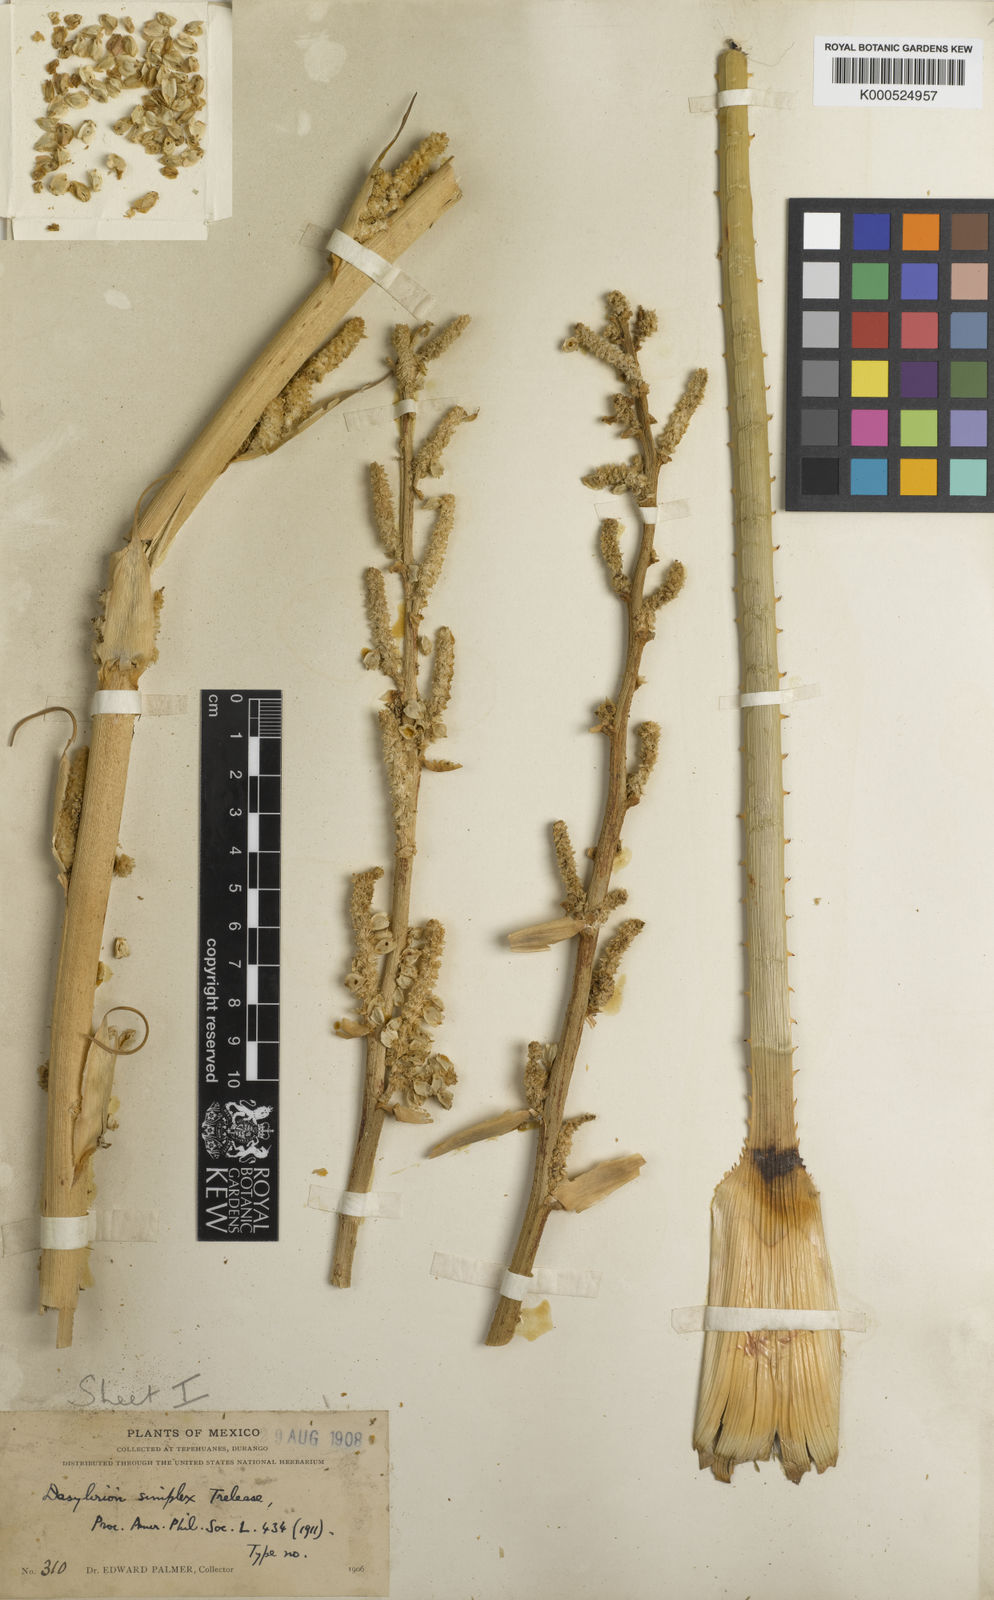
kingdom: Plantae
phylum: Tracheophyta
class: Liliopsida
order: Asparagales
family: Asparagaceae
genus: Dasylirion
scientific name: Dasylirion simplex
